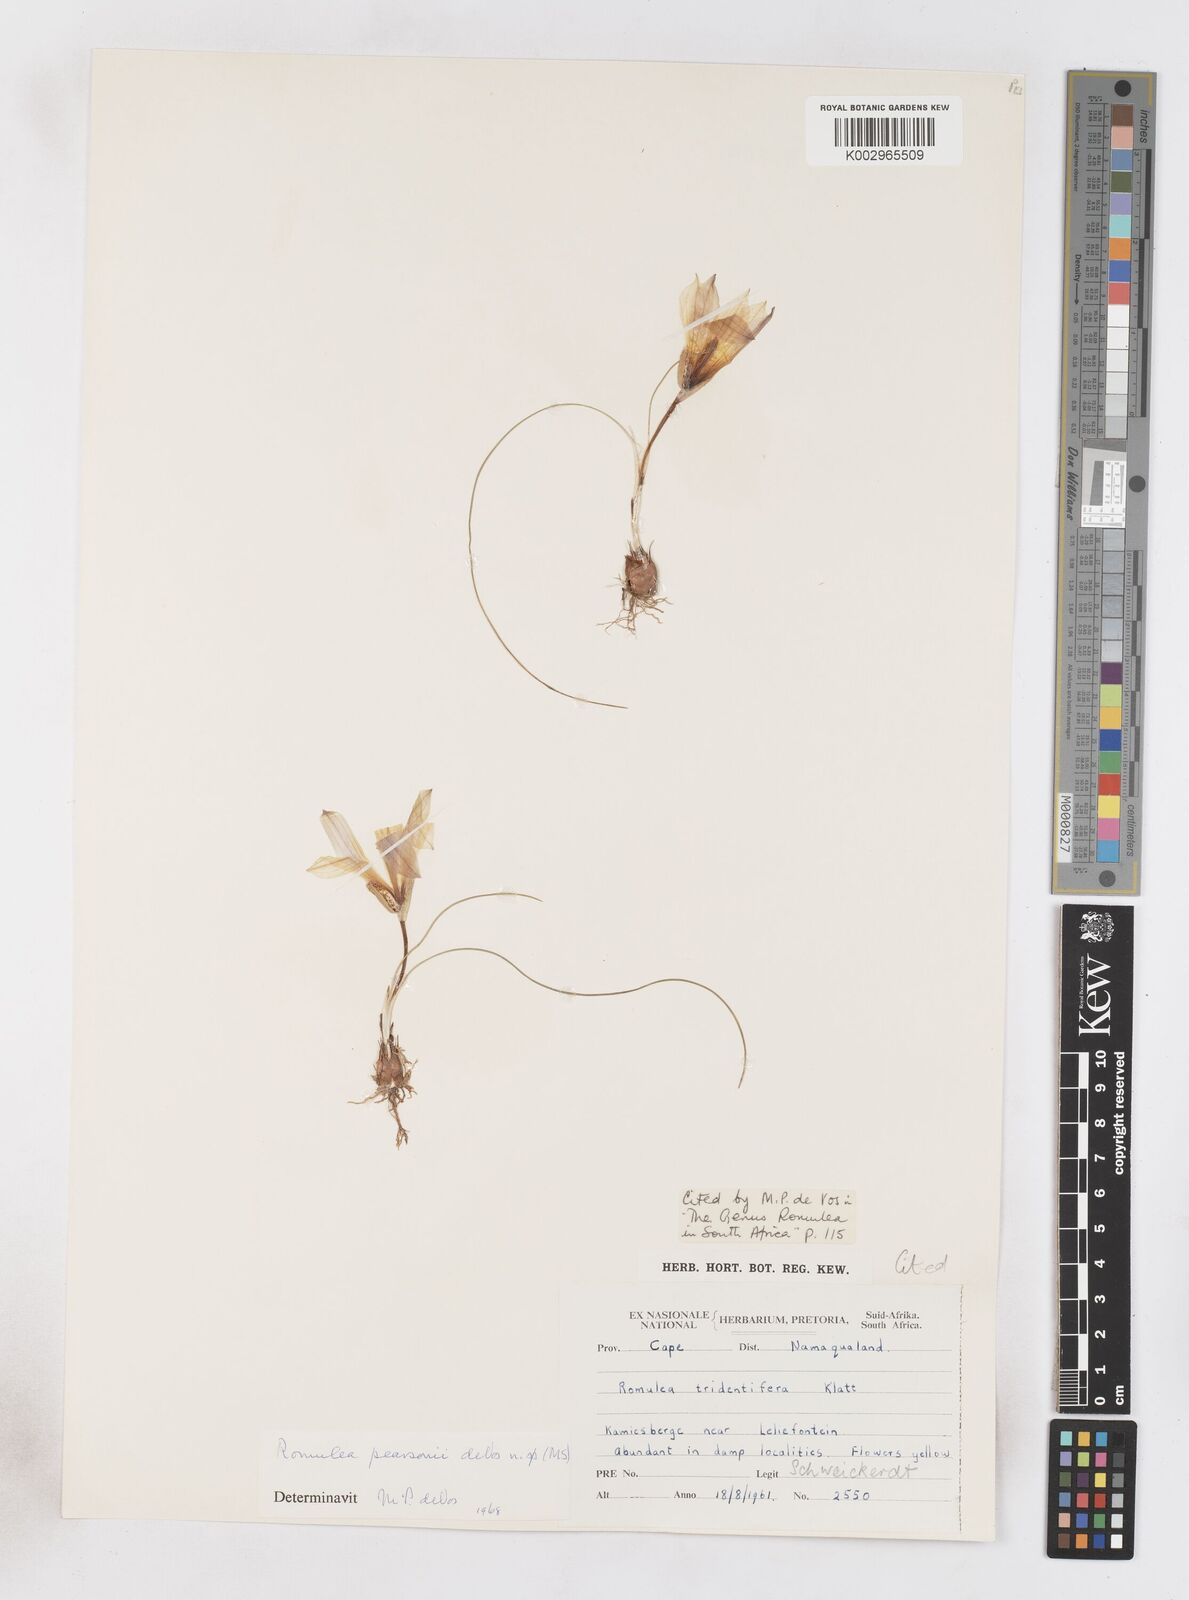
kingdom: Plantae
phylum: Tracheophyta
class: Liliopsida
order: Asparagales
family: Iridaceae
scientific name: Iridaceae
